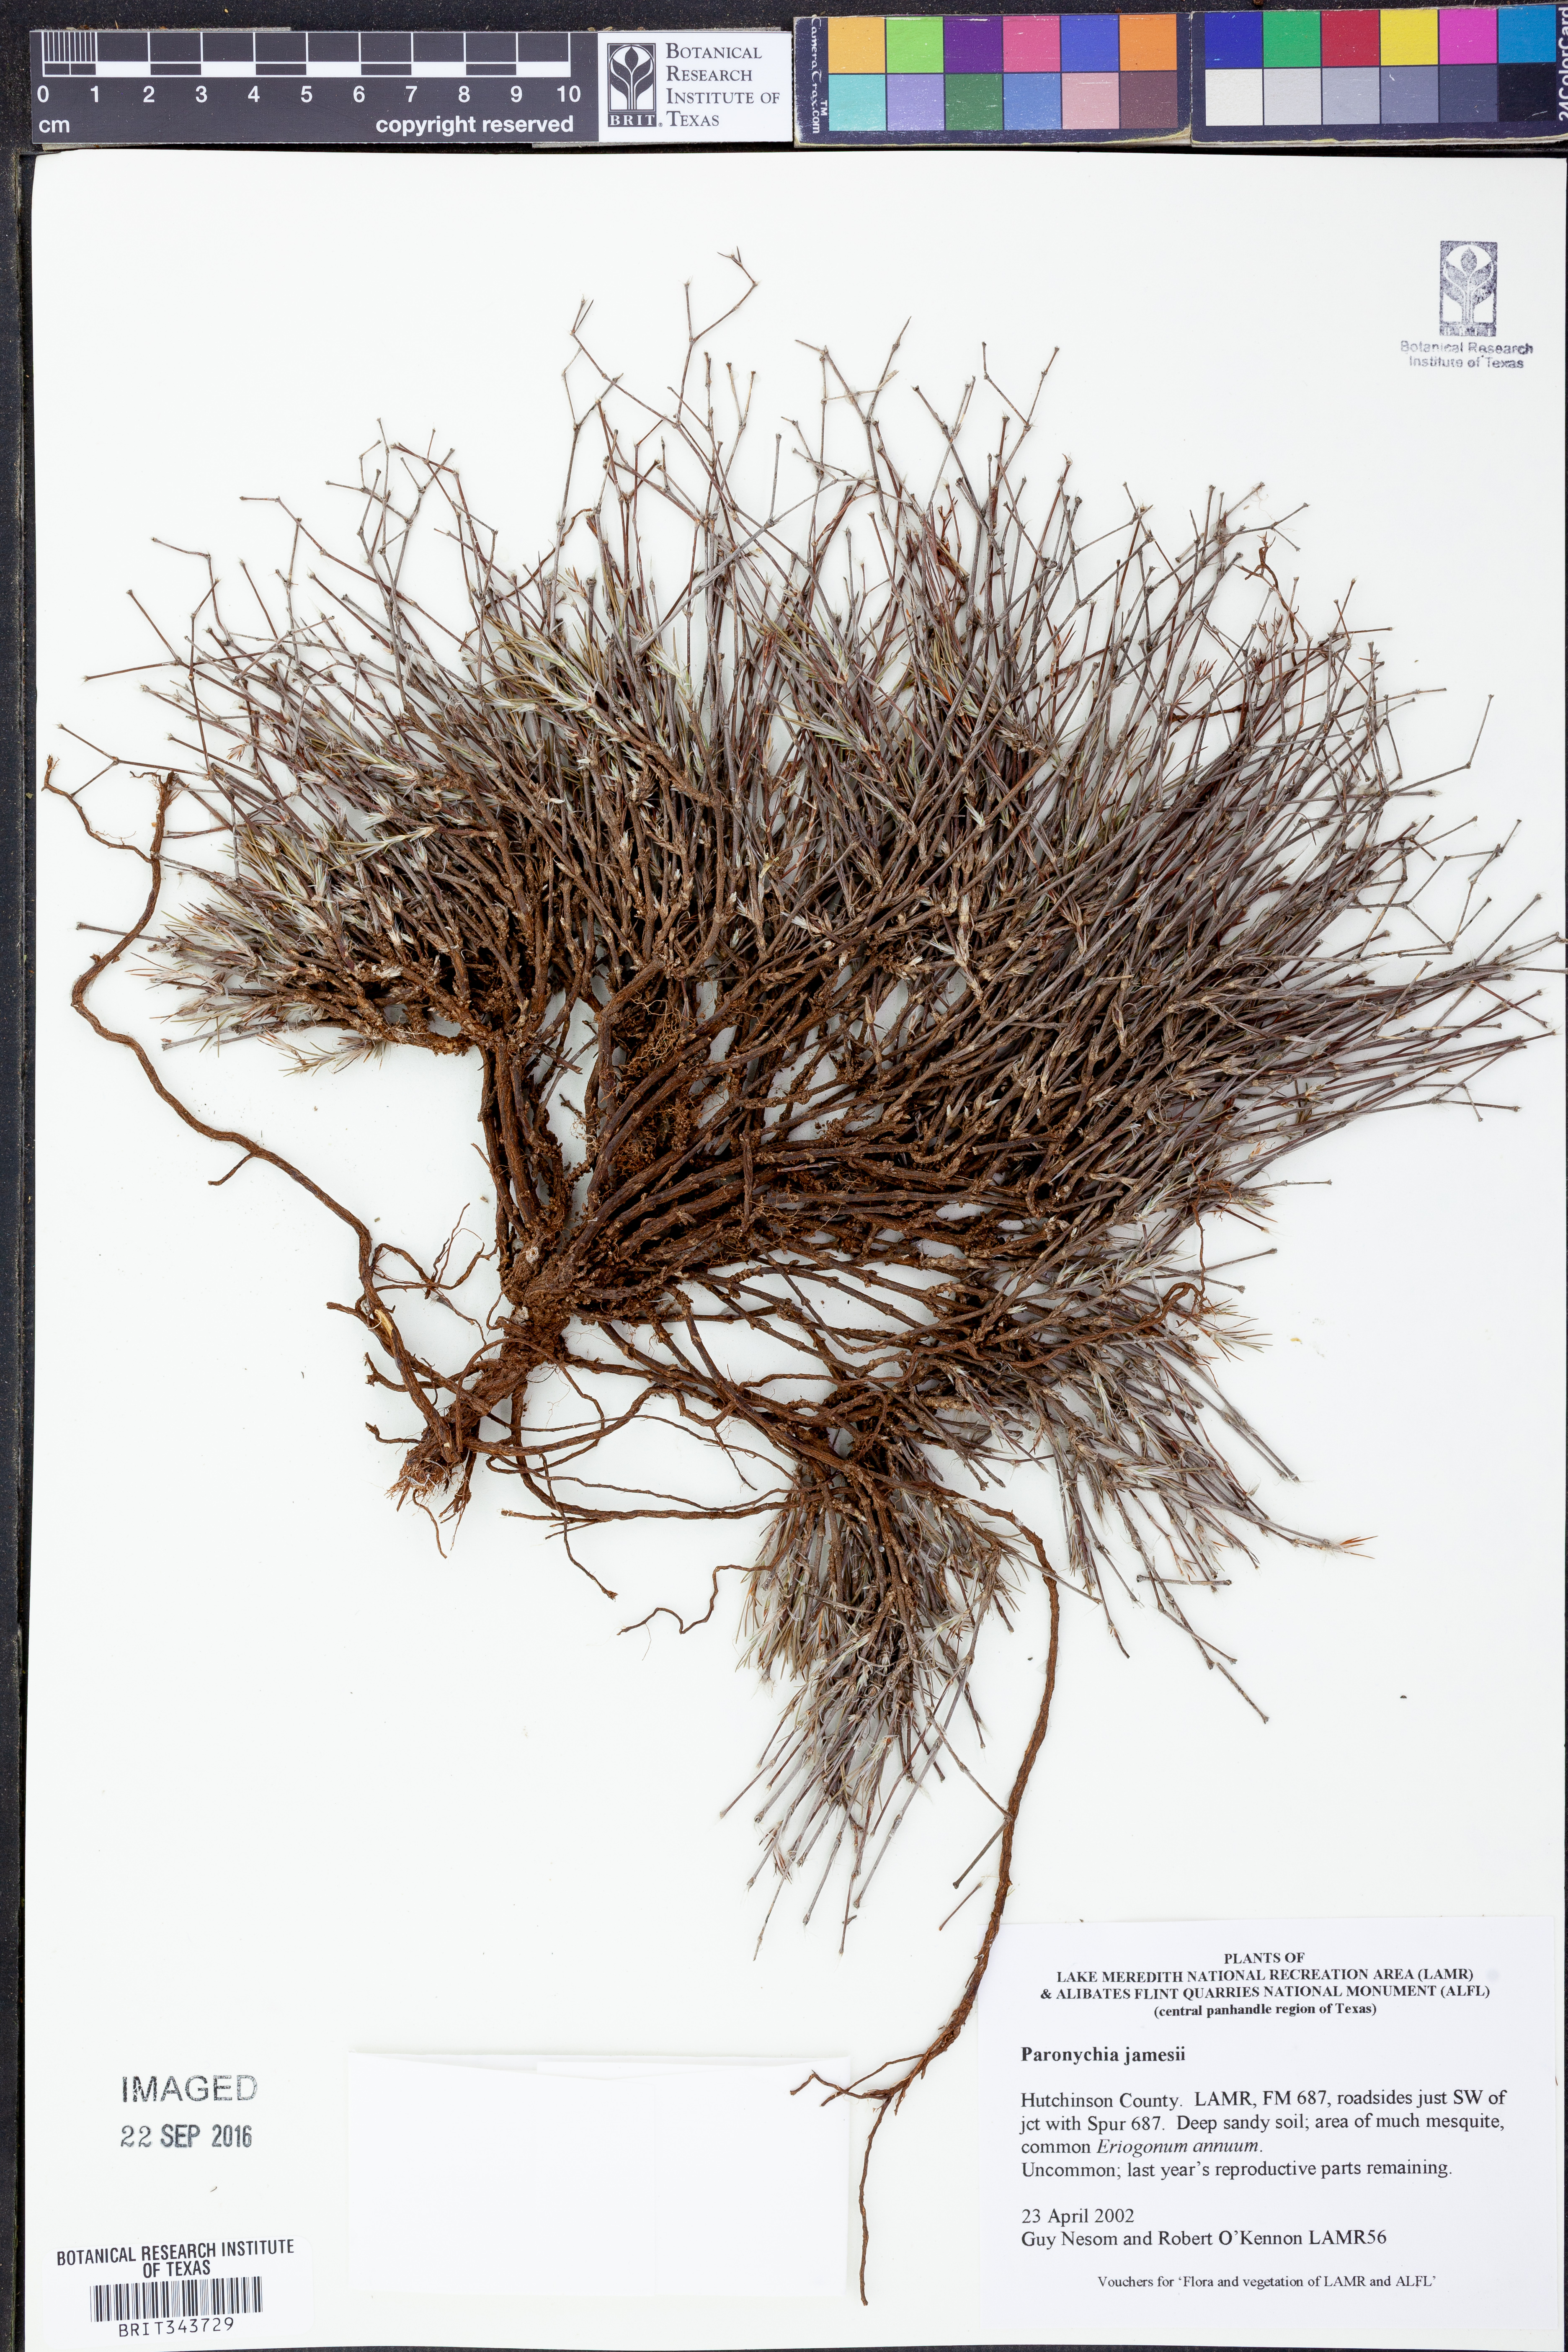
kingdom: Plantae
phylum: Tracheophyta
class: Magnoliopsida
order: Caryophyllales
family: Caryophyllaceae
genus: Paronychia
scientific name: Paronychia jamesii
